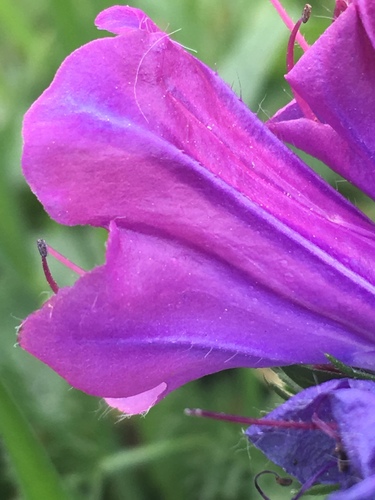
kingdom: Plantae
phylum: Tracheophyta
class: Magnoliopsida
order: Boraginales
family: Boraginaceae
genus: Echium
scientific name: Echium plantagineum
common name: Purple viper's-bugloss
